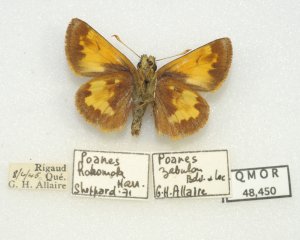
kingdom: Animalia
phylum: Arthropoda
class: Insecta
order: Lepidoptera
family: Hesperiidae
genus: Lon
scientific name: Lon hobomok
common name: Hobomok Skipper
